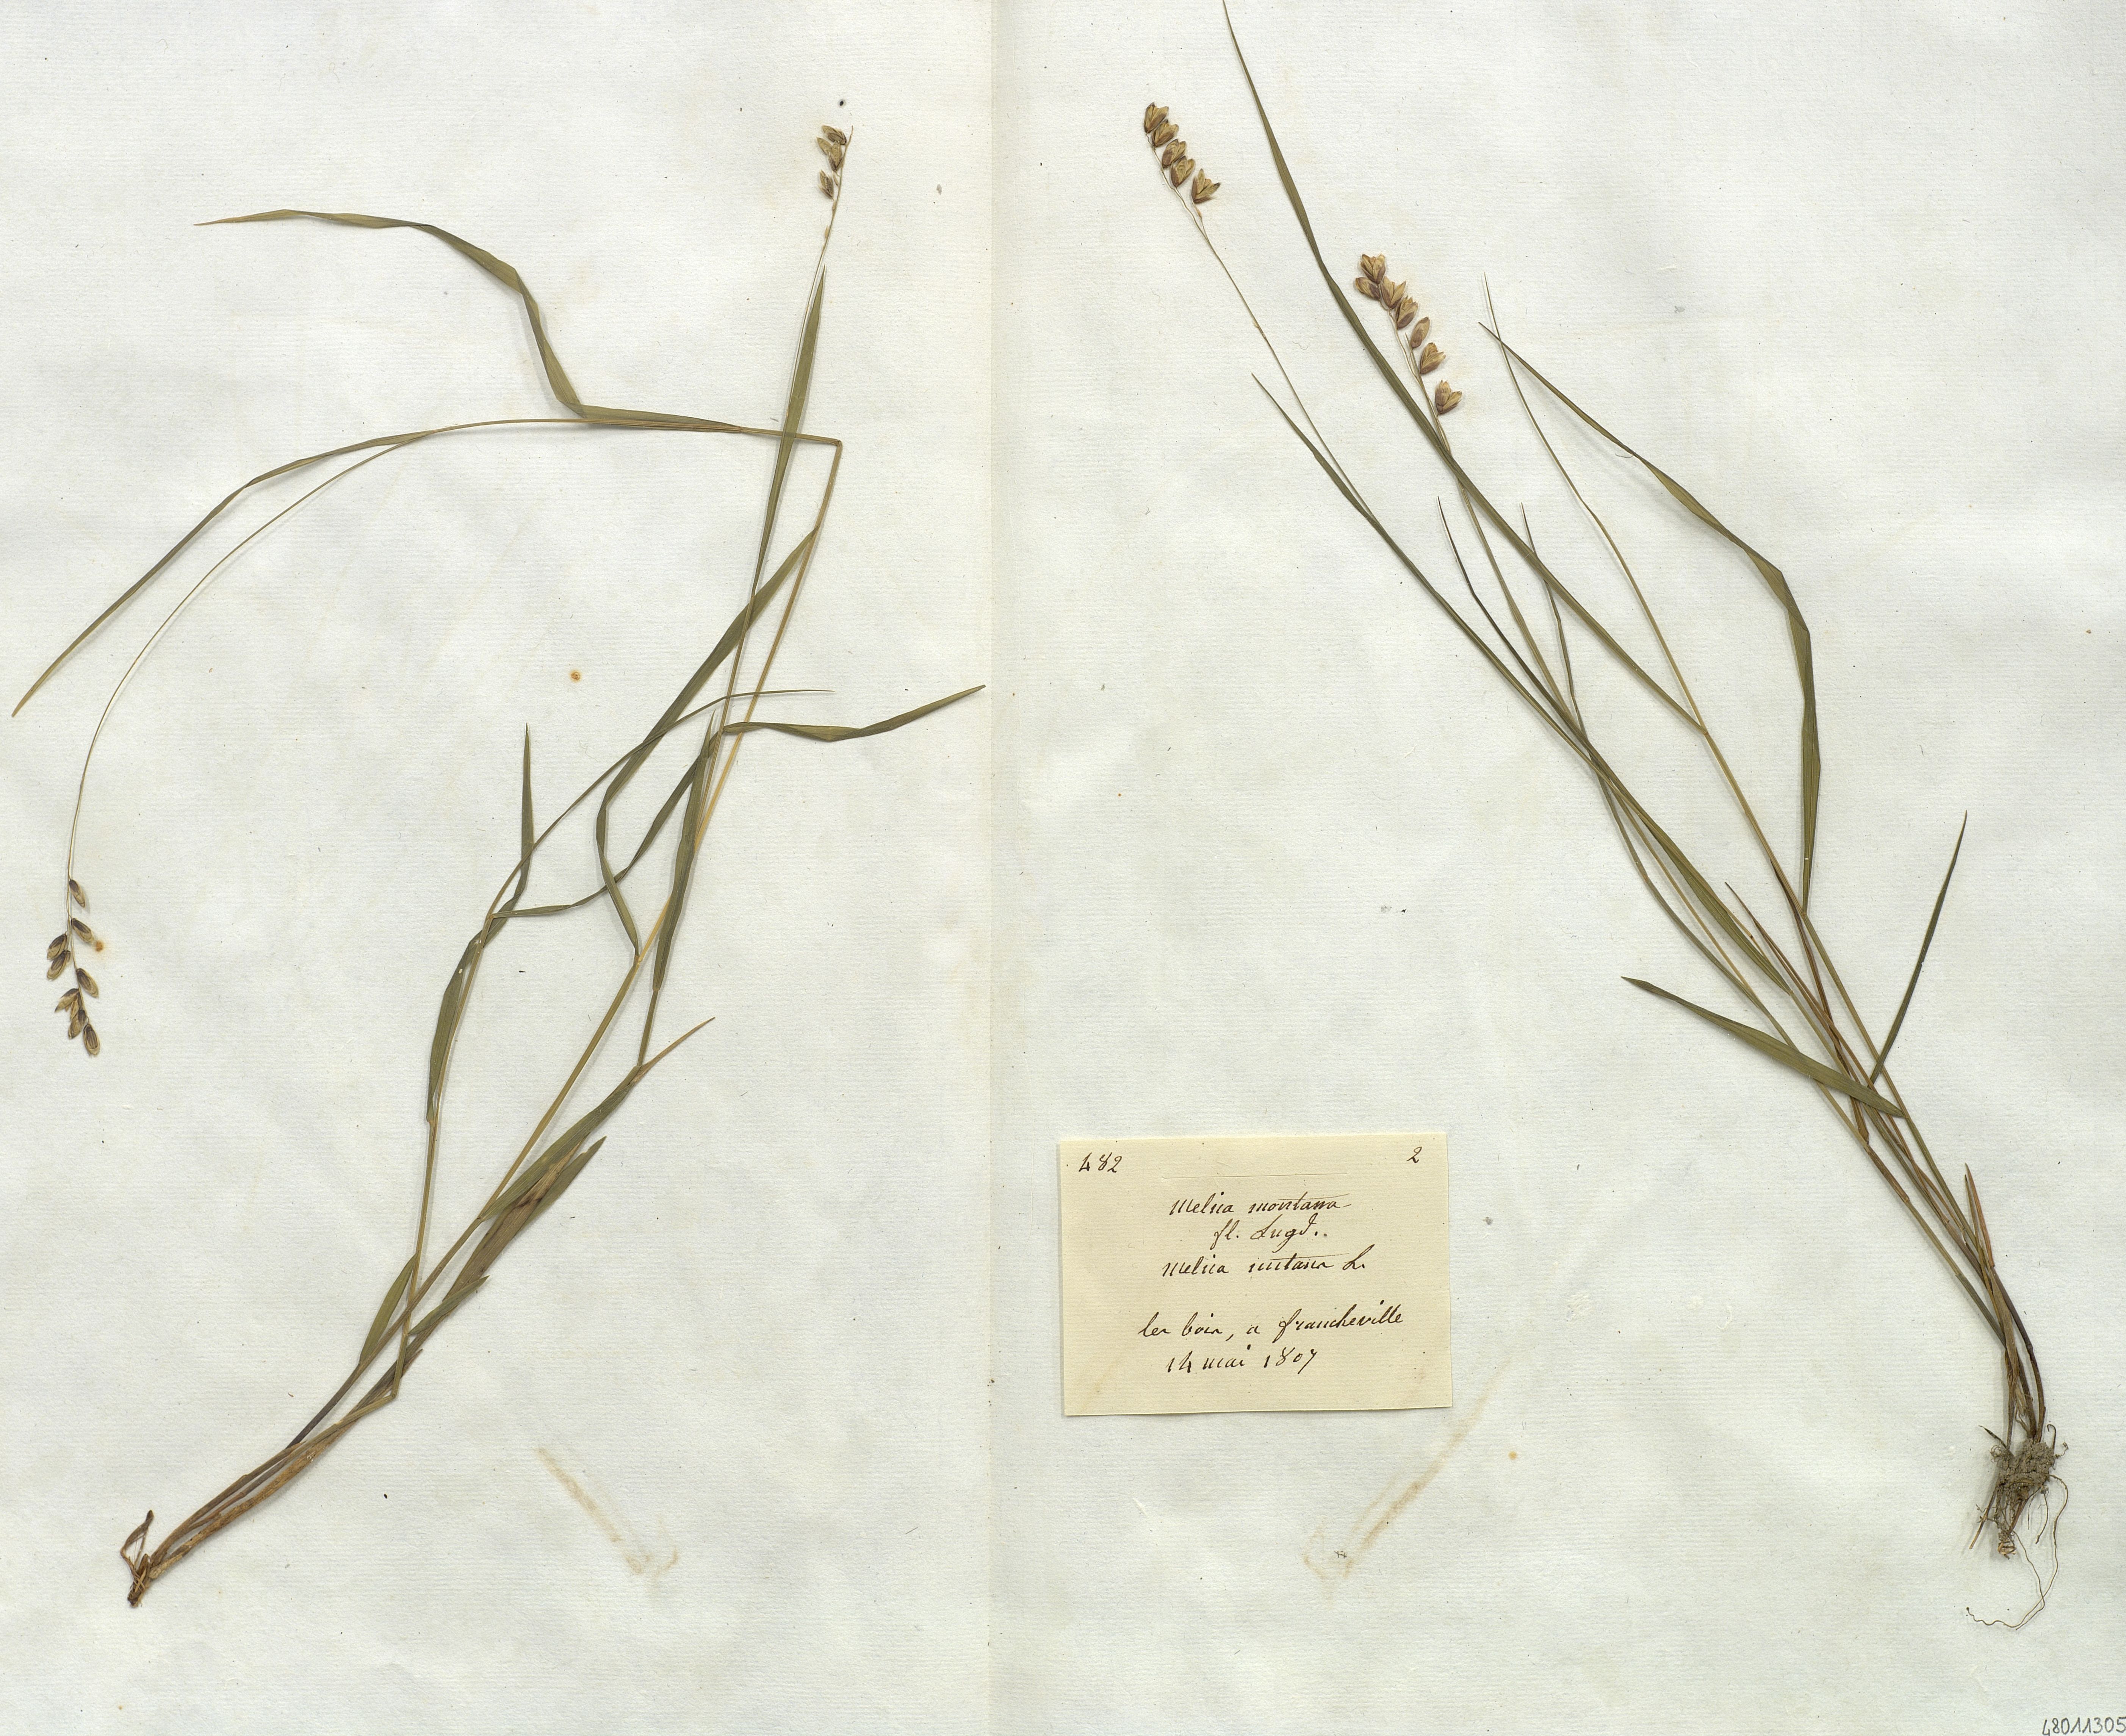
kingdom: Plantae
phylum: Tracheophyta
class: Liliopsida
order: Poales
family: Poaceae
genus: Melica
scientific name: Melica
